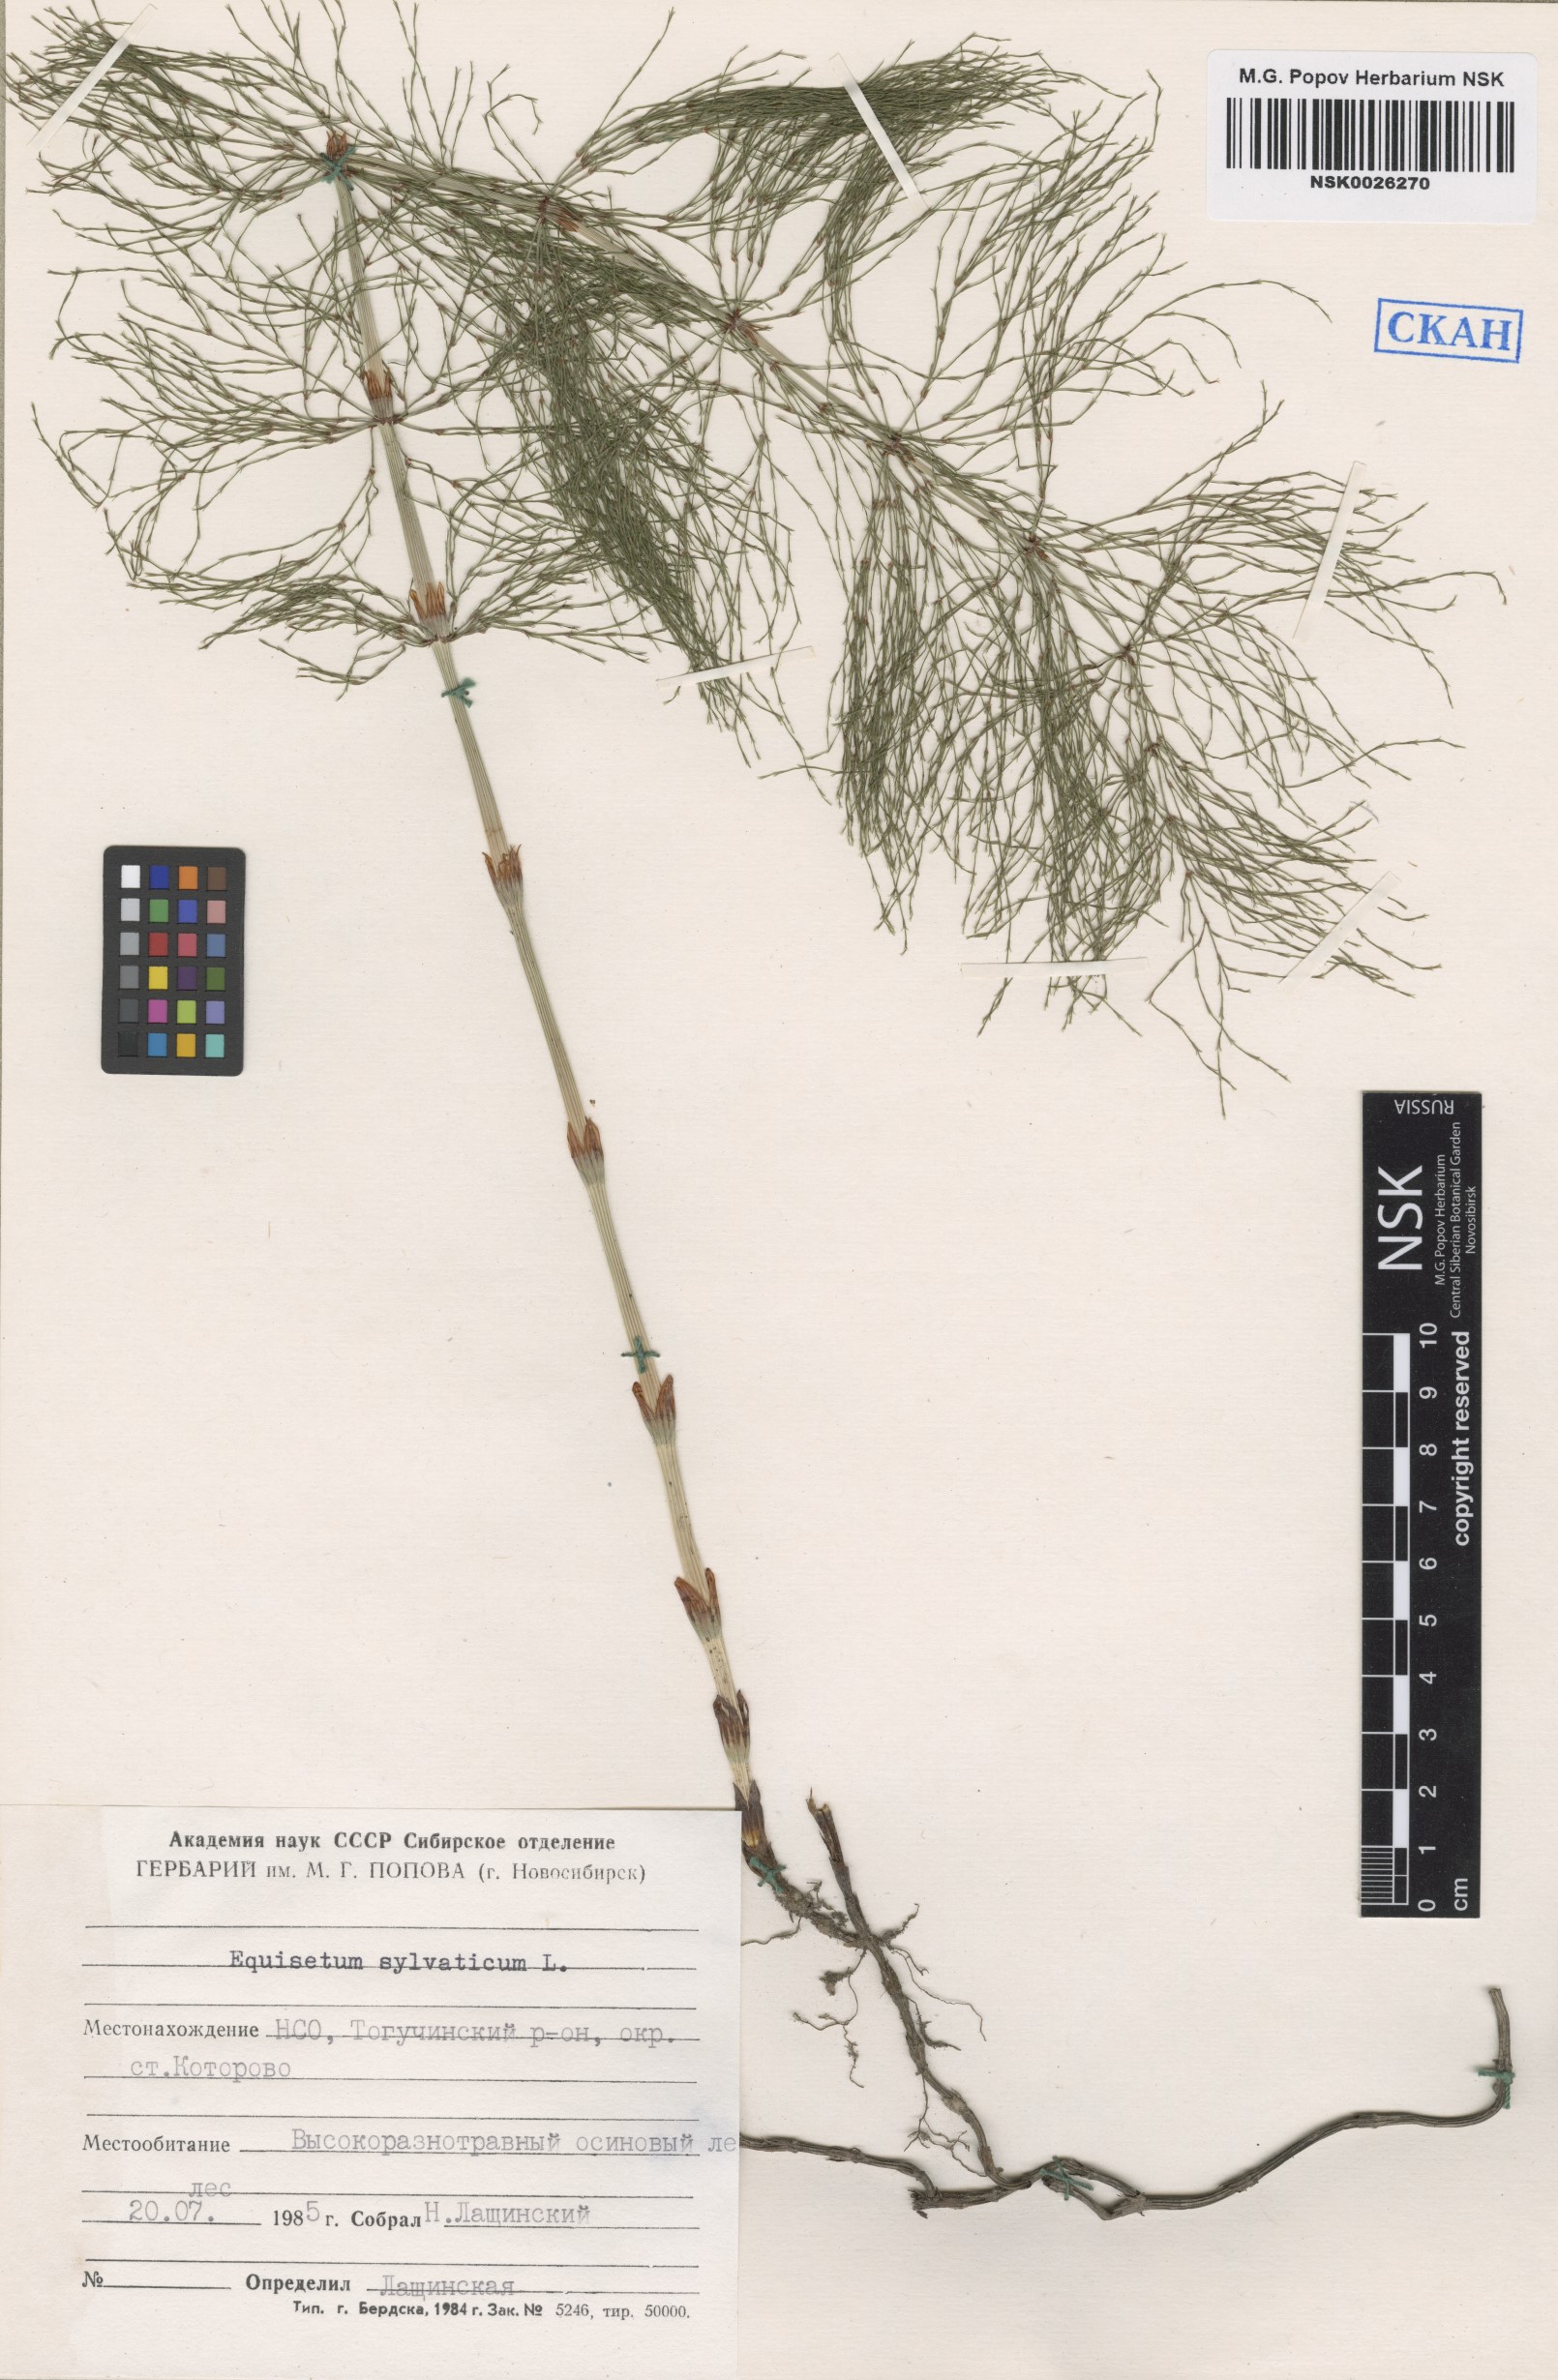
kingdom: Plantae
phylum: Tracheophyta
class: Polypodiopsida
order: Equisetales
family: Equisetaceae
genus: Equisetum
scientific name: Equisetum sylvaticum
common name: Wood horsetail
